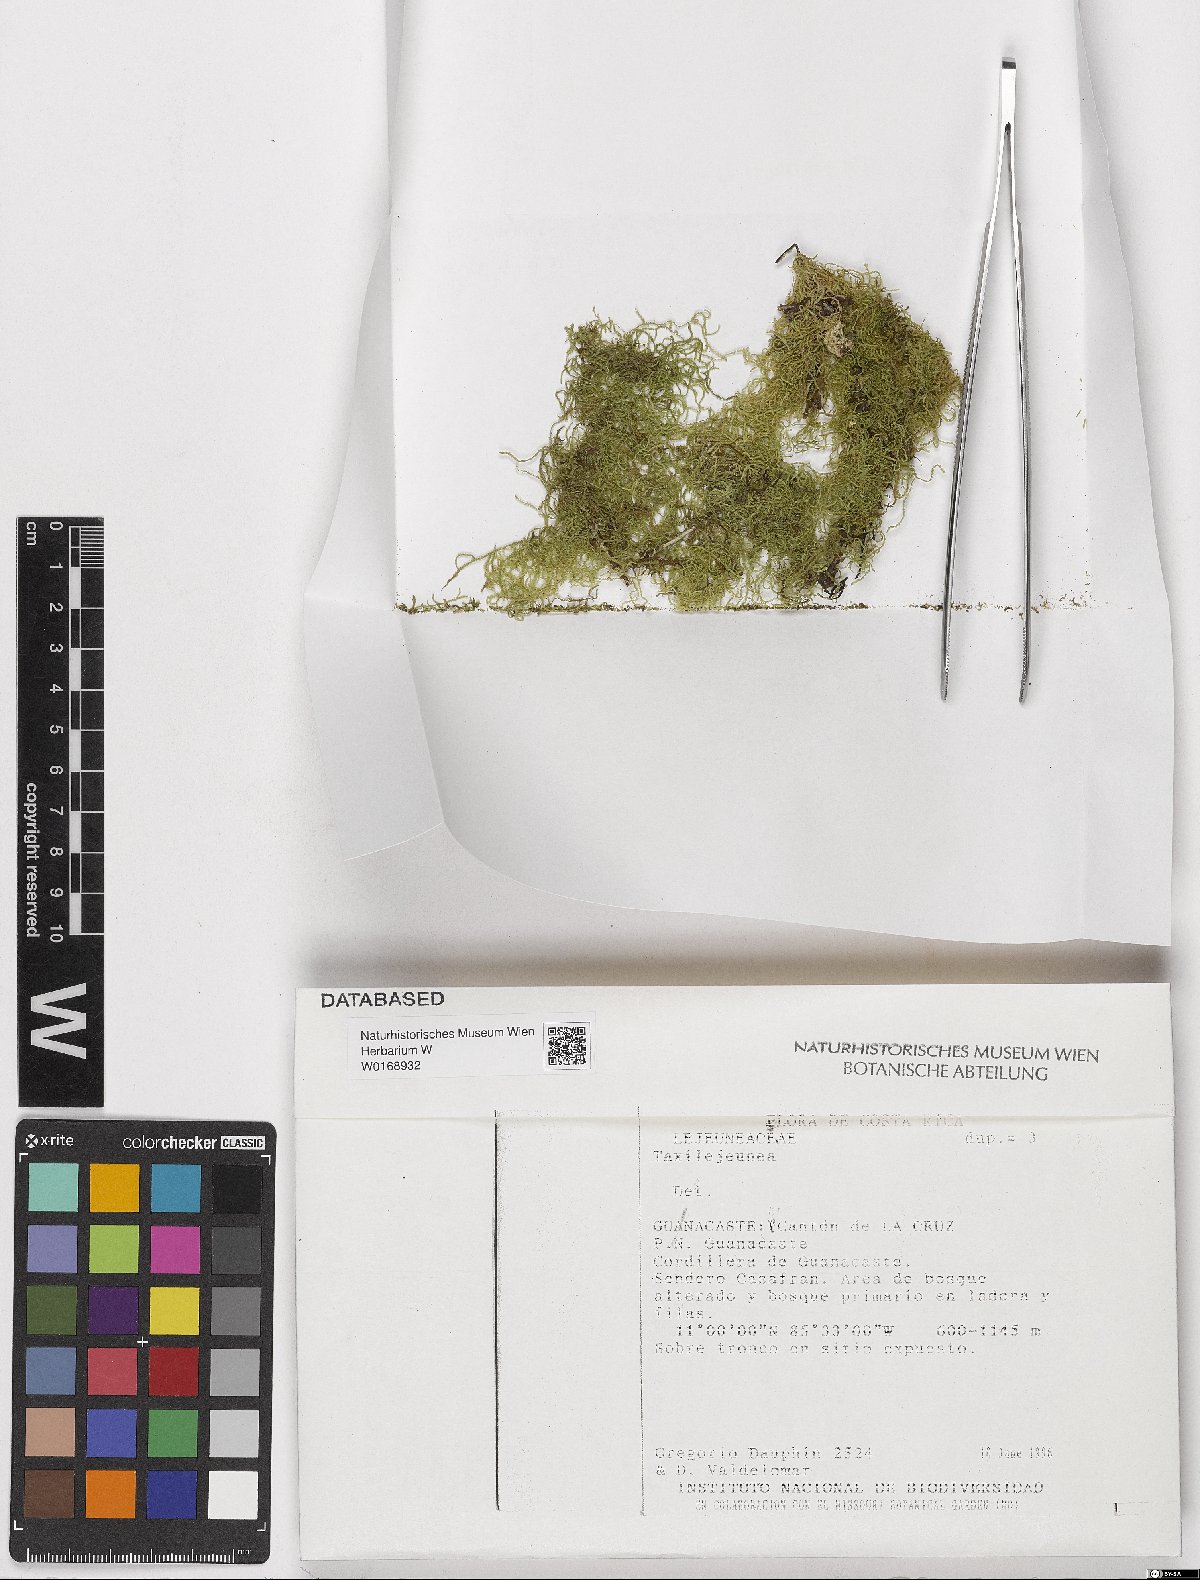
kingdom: Plantae
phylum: Marchantiophyta
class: Jungermanniopsida
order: Porellales
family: Lejeuneaceae
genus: Taxilejeunea
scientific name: Taxilejeunea
